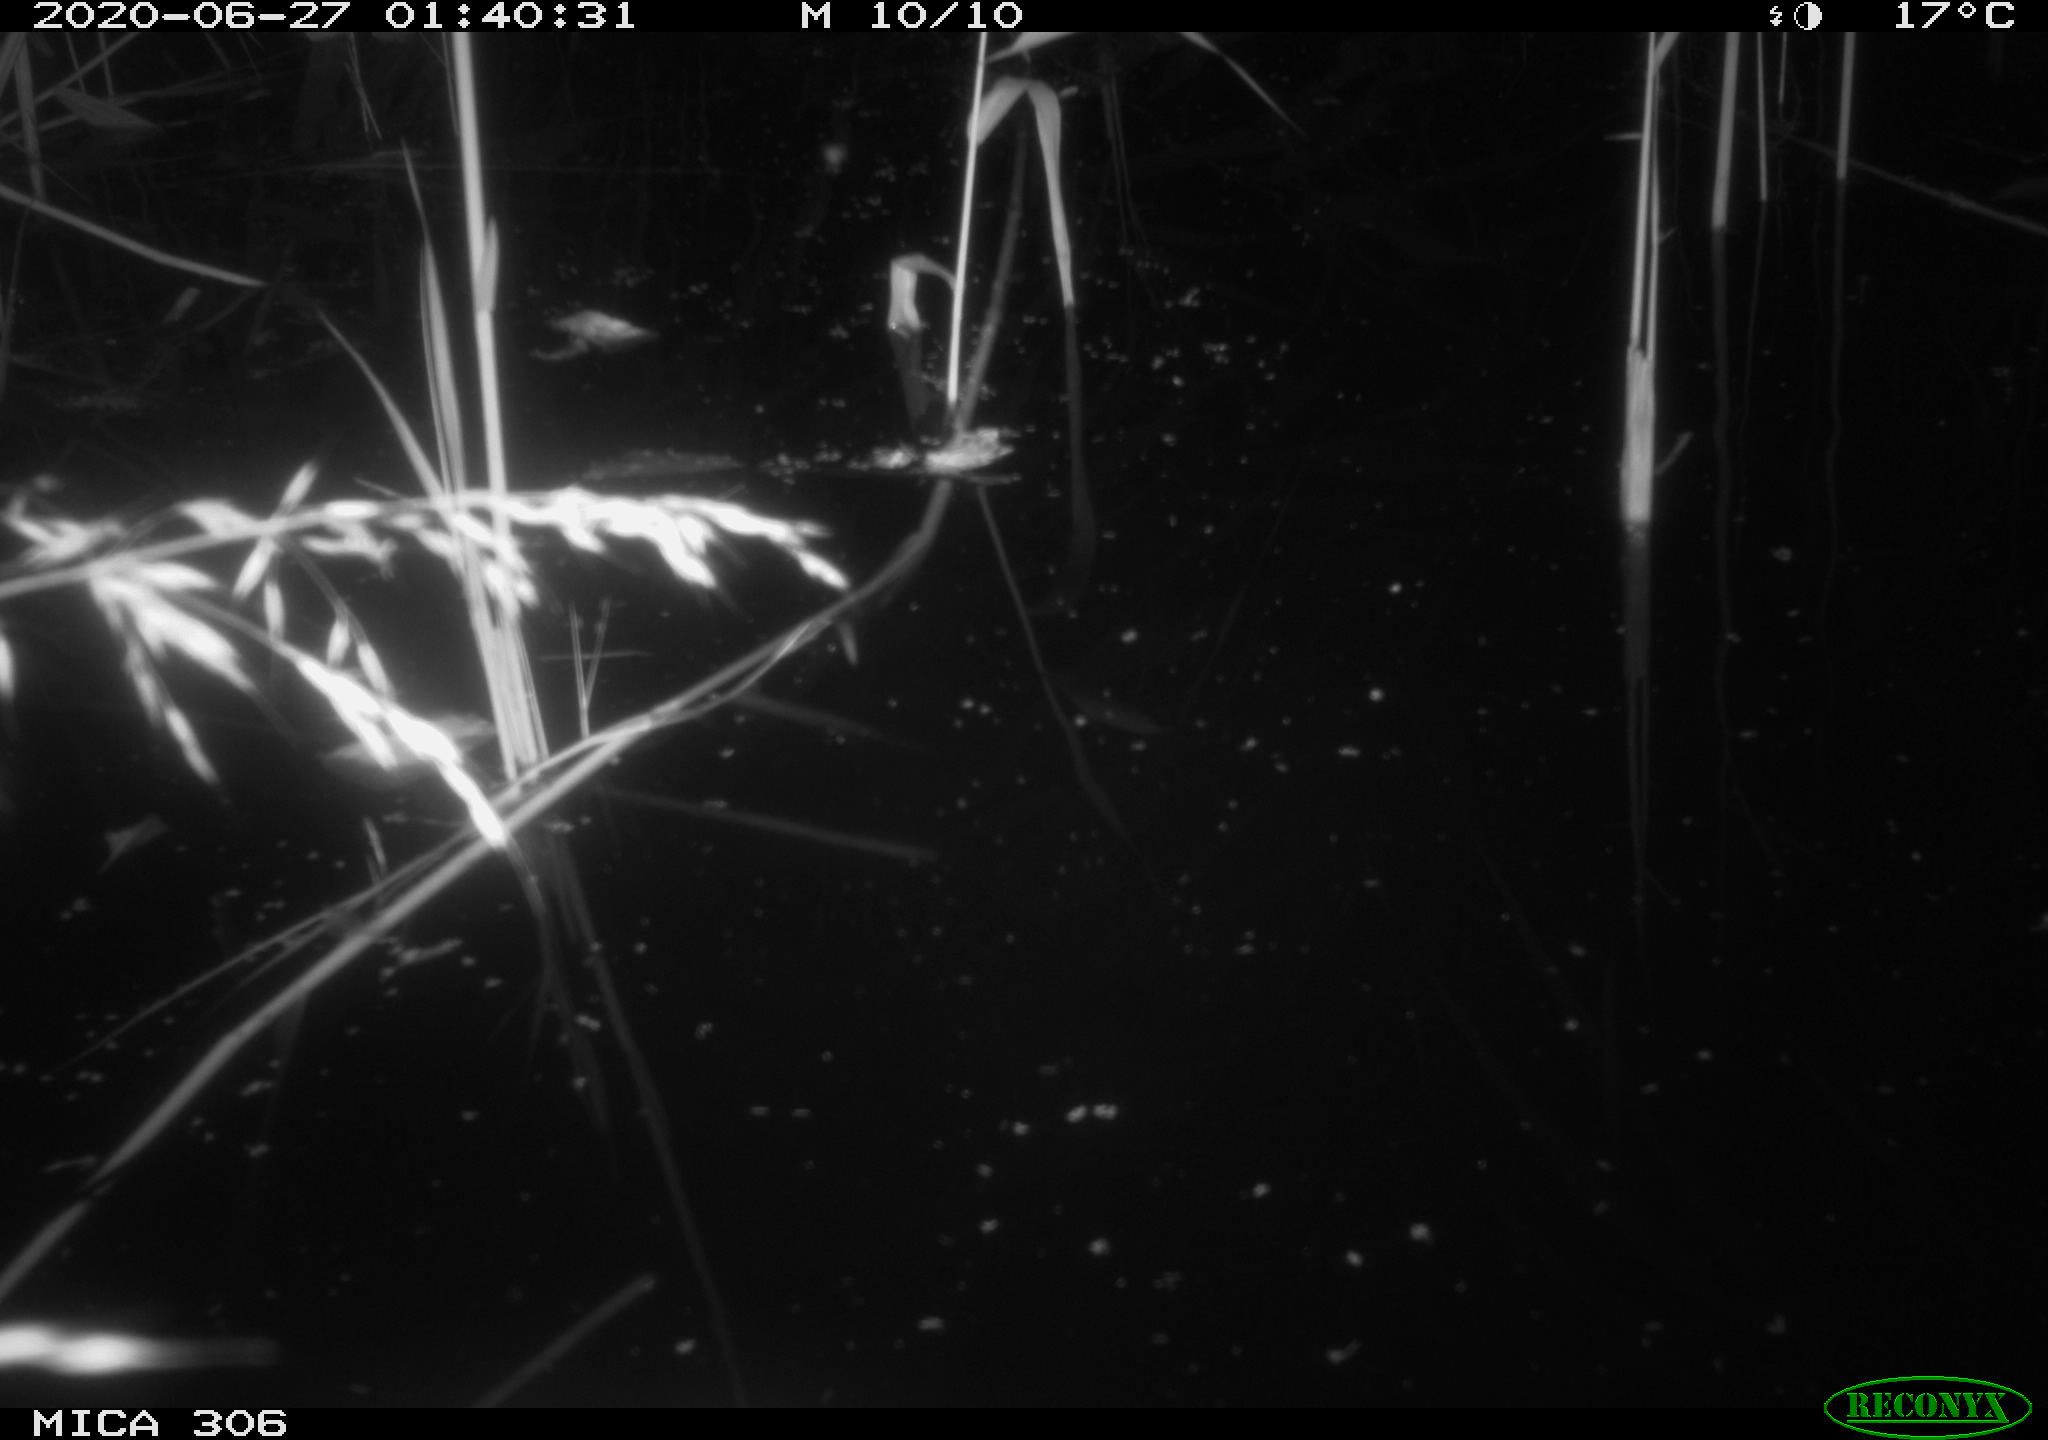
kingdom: Animalia
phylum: Chordata
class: Mammalia
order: Rodentia
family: Muridae
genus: Rattus
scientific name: Rattus norvegicus
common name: Brown rat
